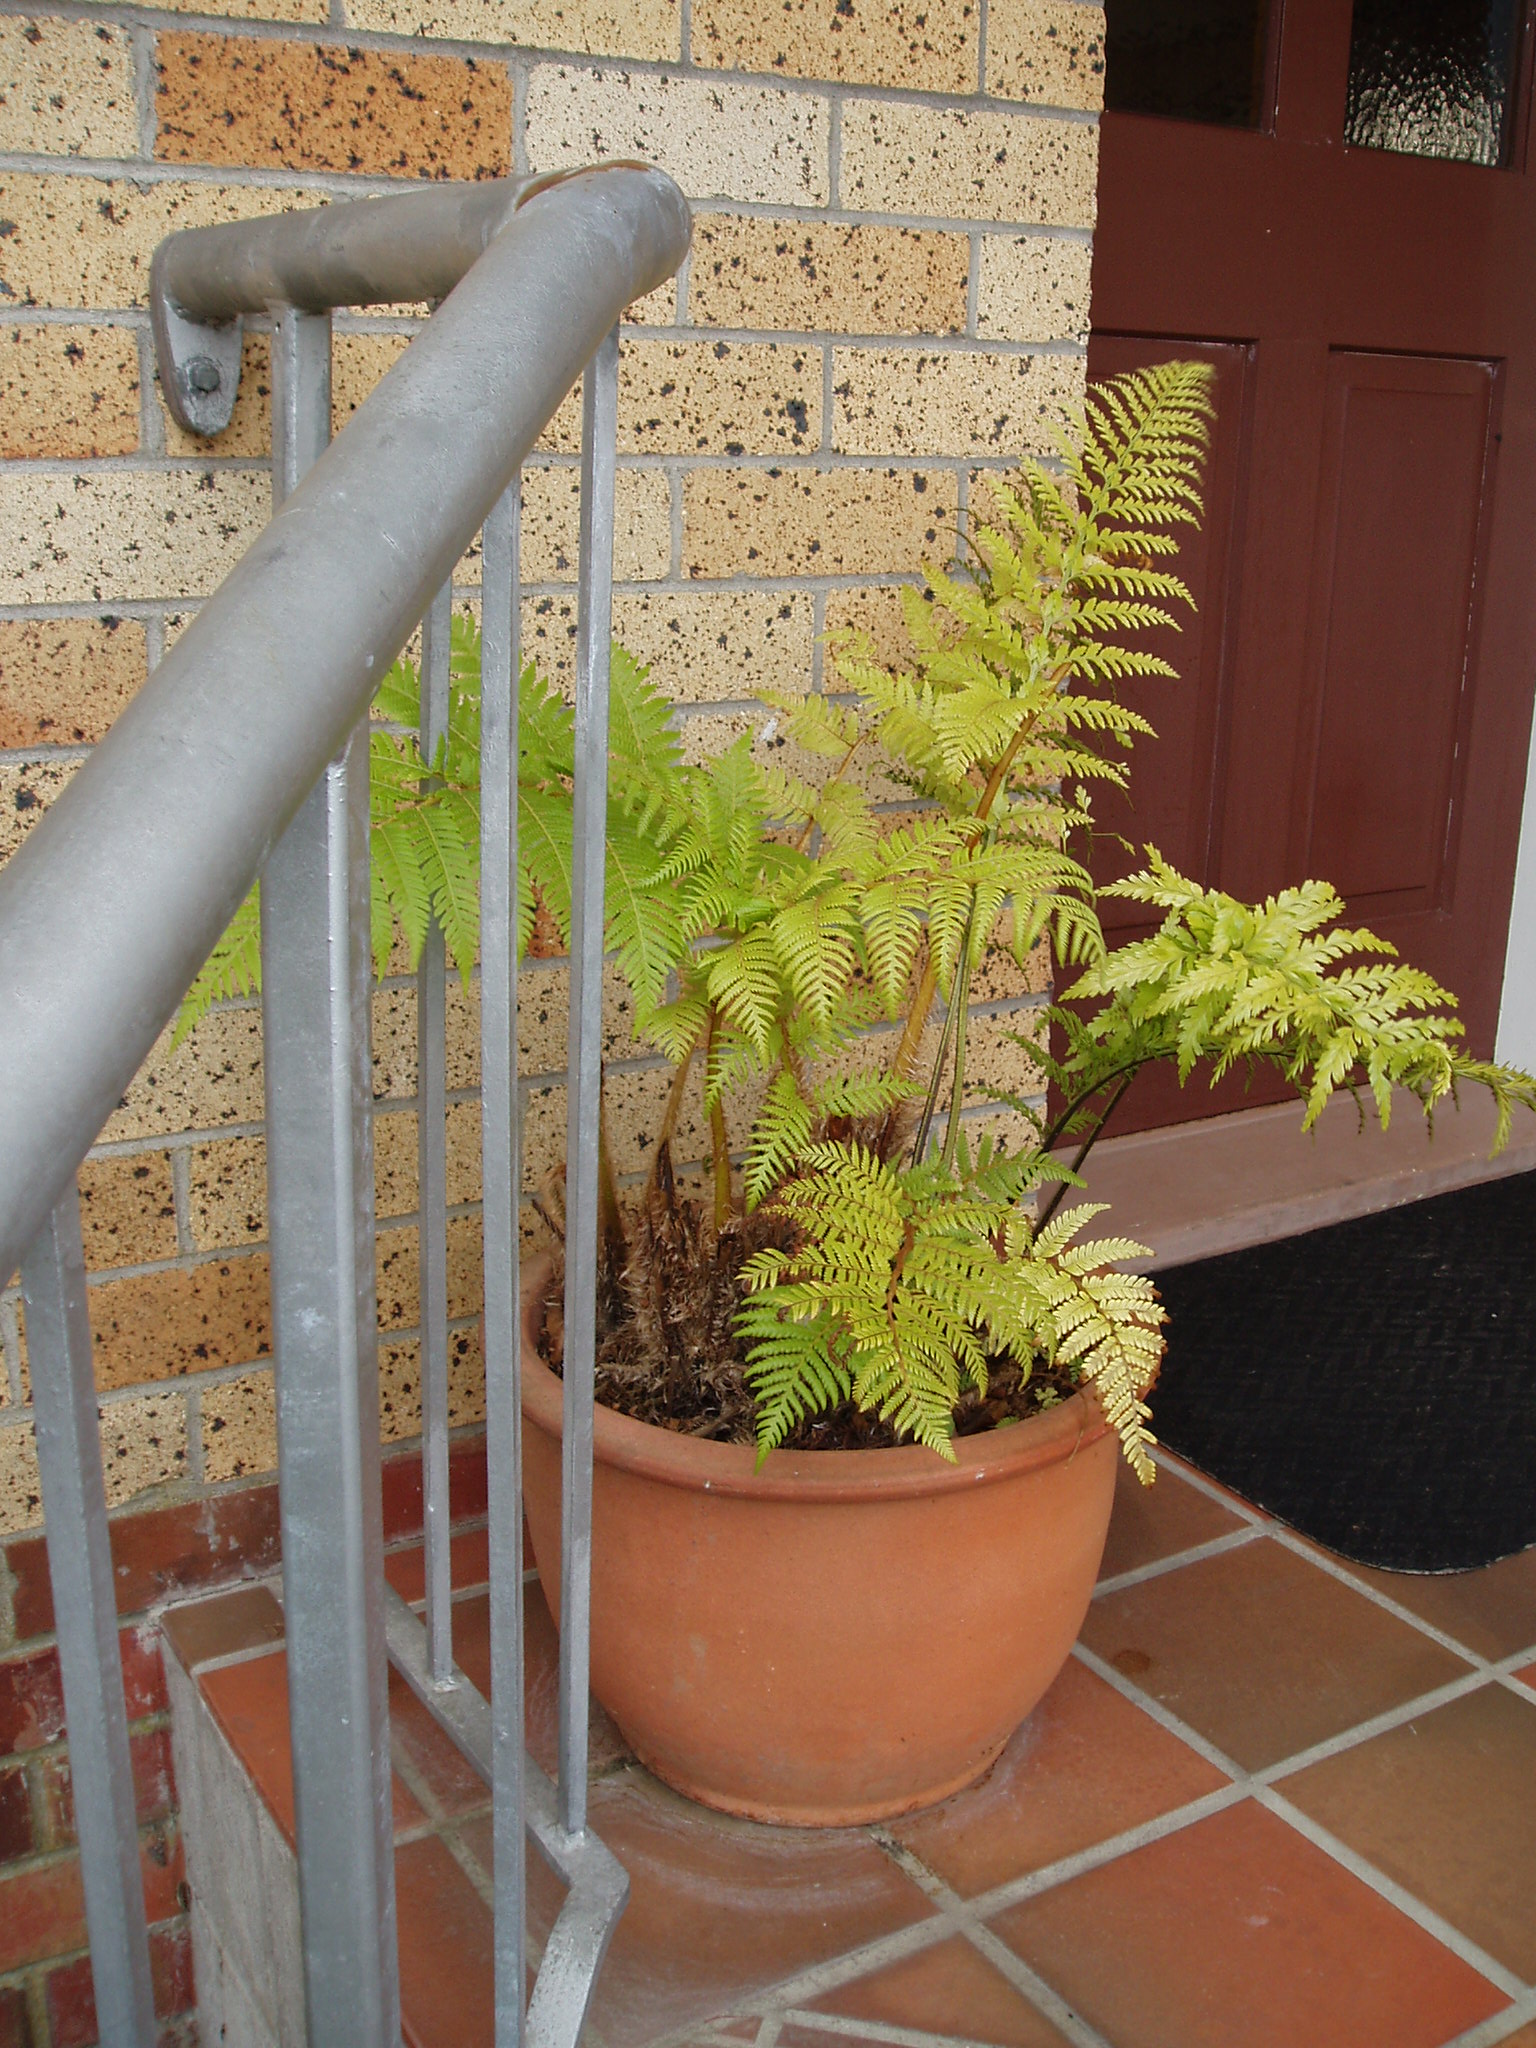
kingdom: Plantae
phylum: Tracheophyta
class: Polypodiopsida
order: Cyatheales
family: Cyatheaceae
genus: Sphaeropteris
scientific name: Sphaeropteris excelsa
